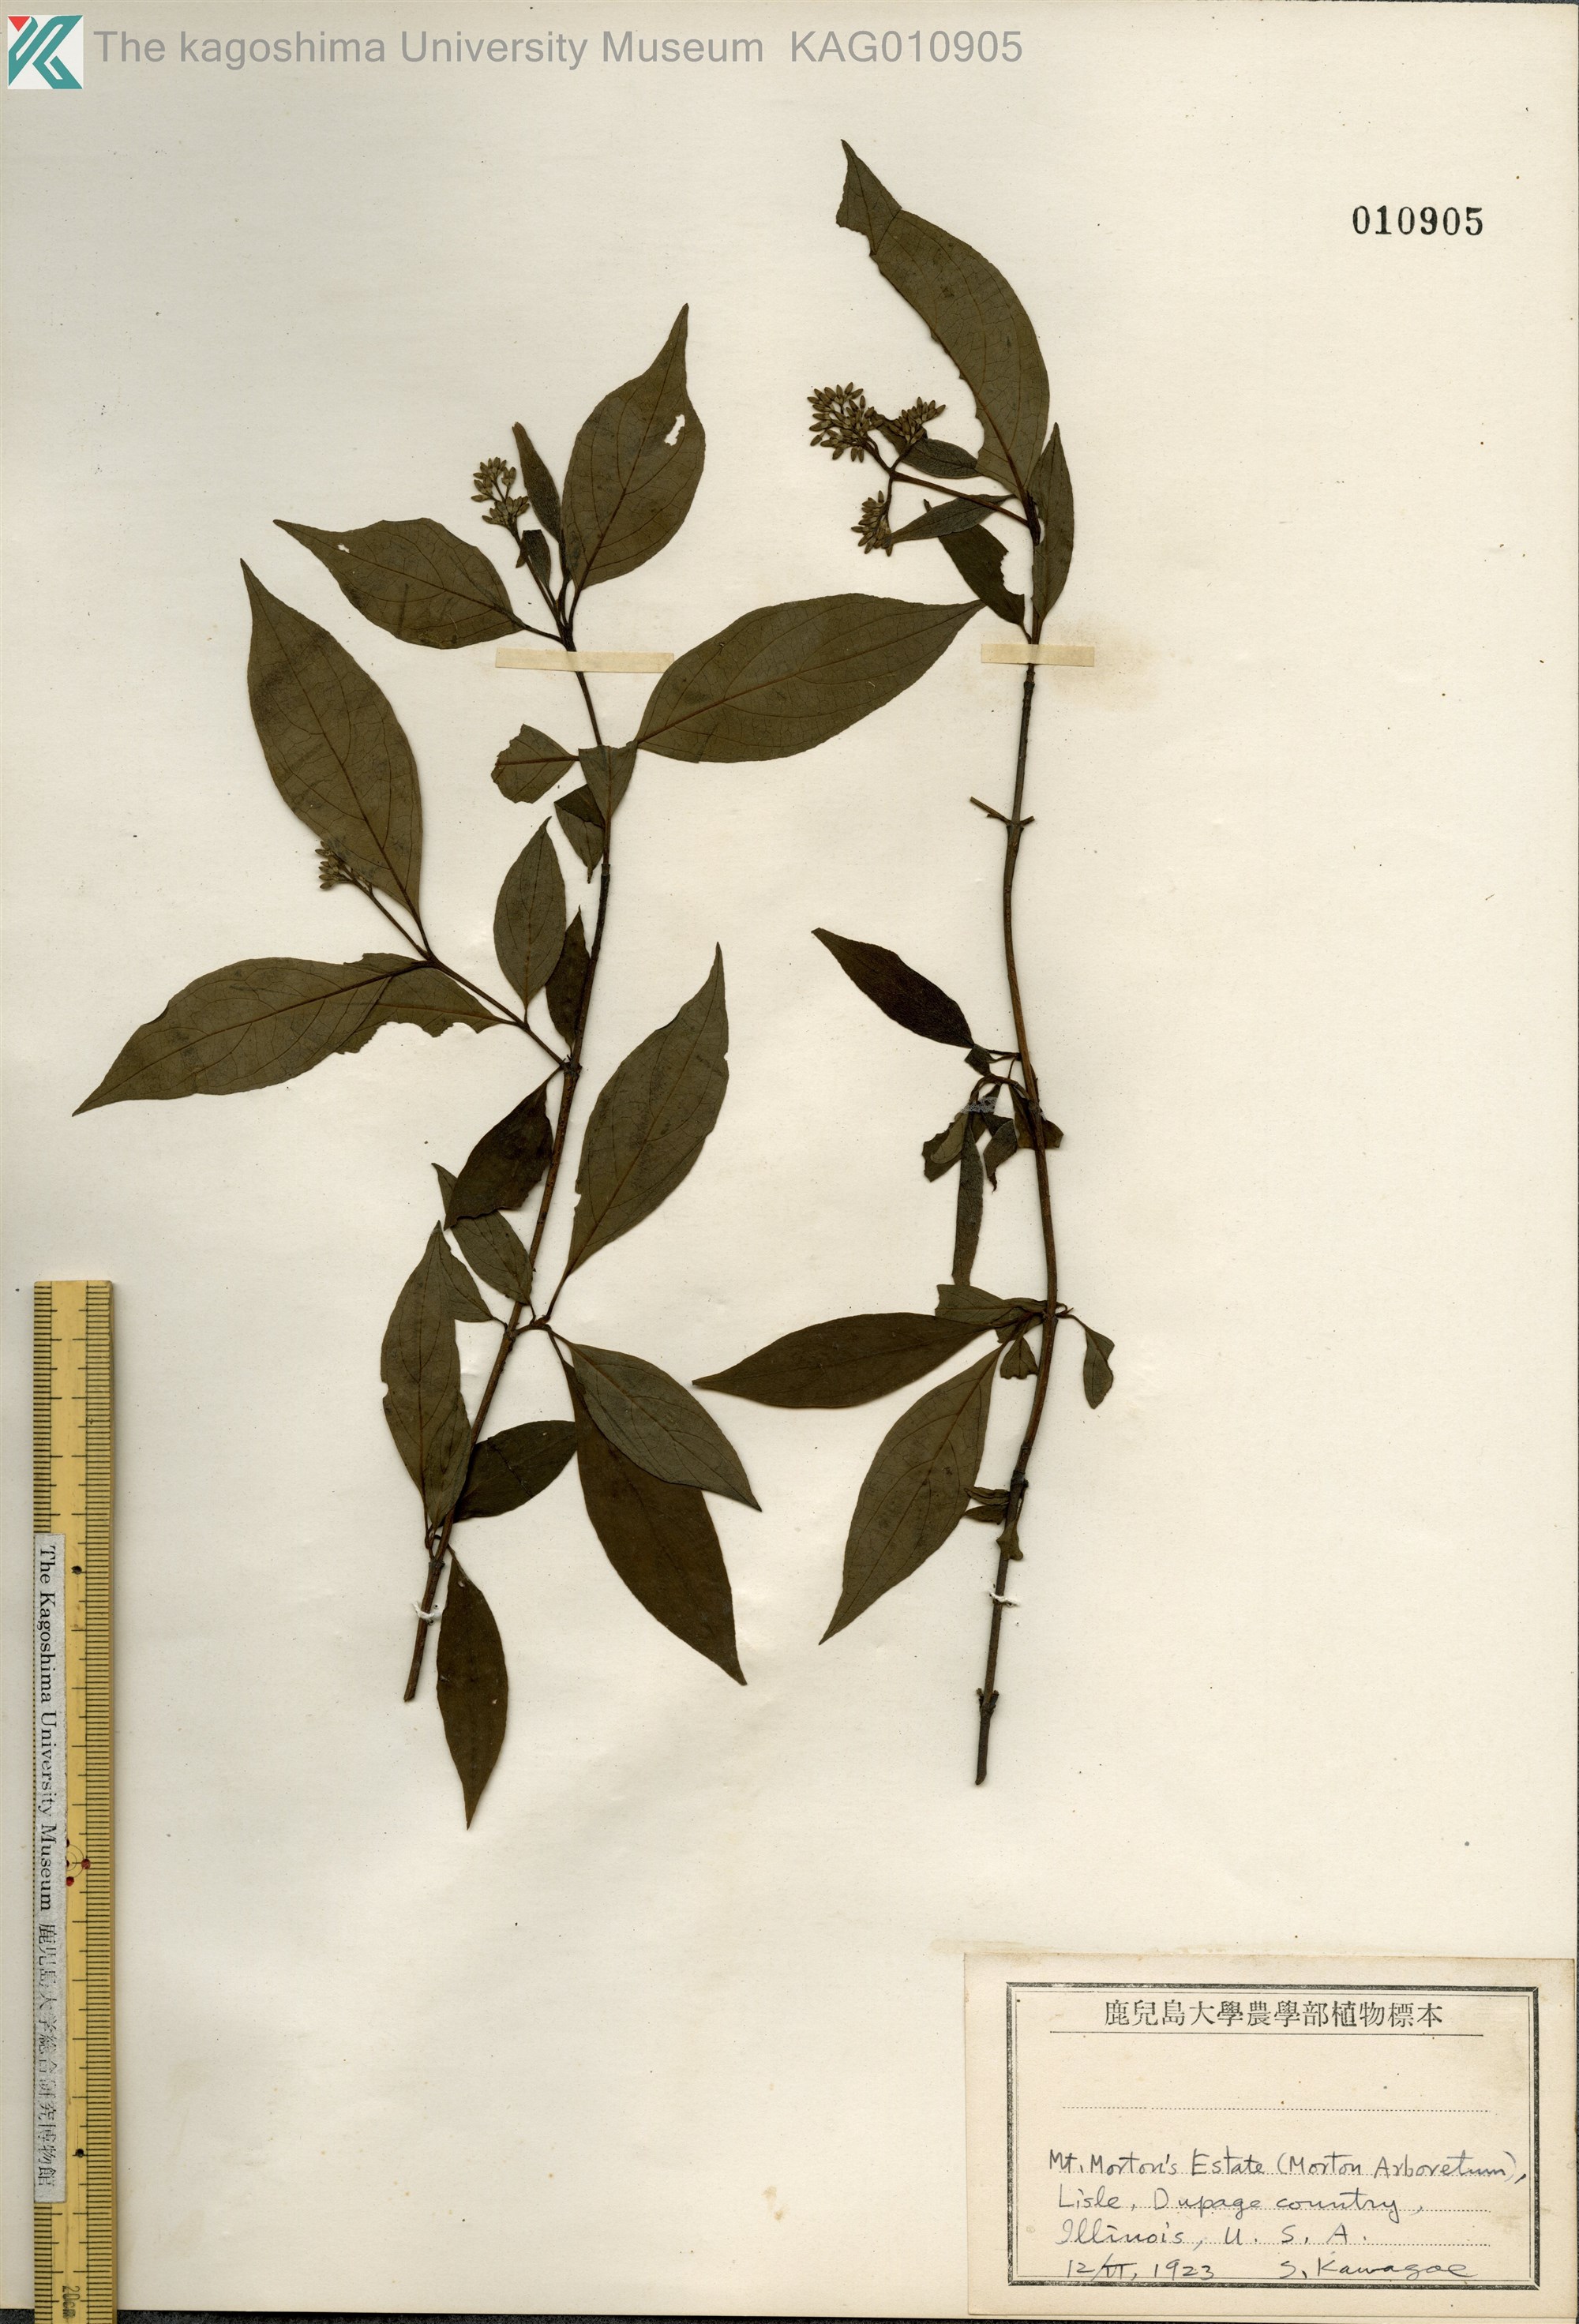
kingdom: Plantae
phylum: Tracheophyta
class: Magnoliopsida
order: Cornales
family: Cornaceae
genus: Cornus
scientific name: Cornus
